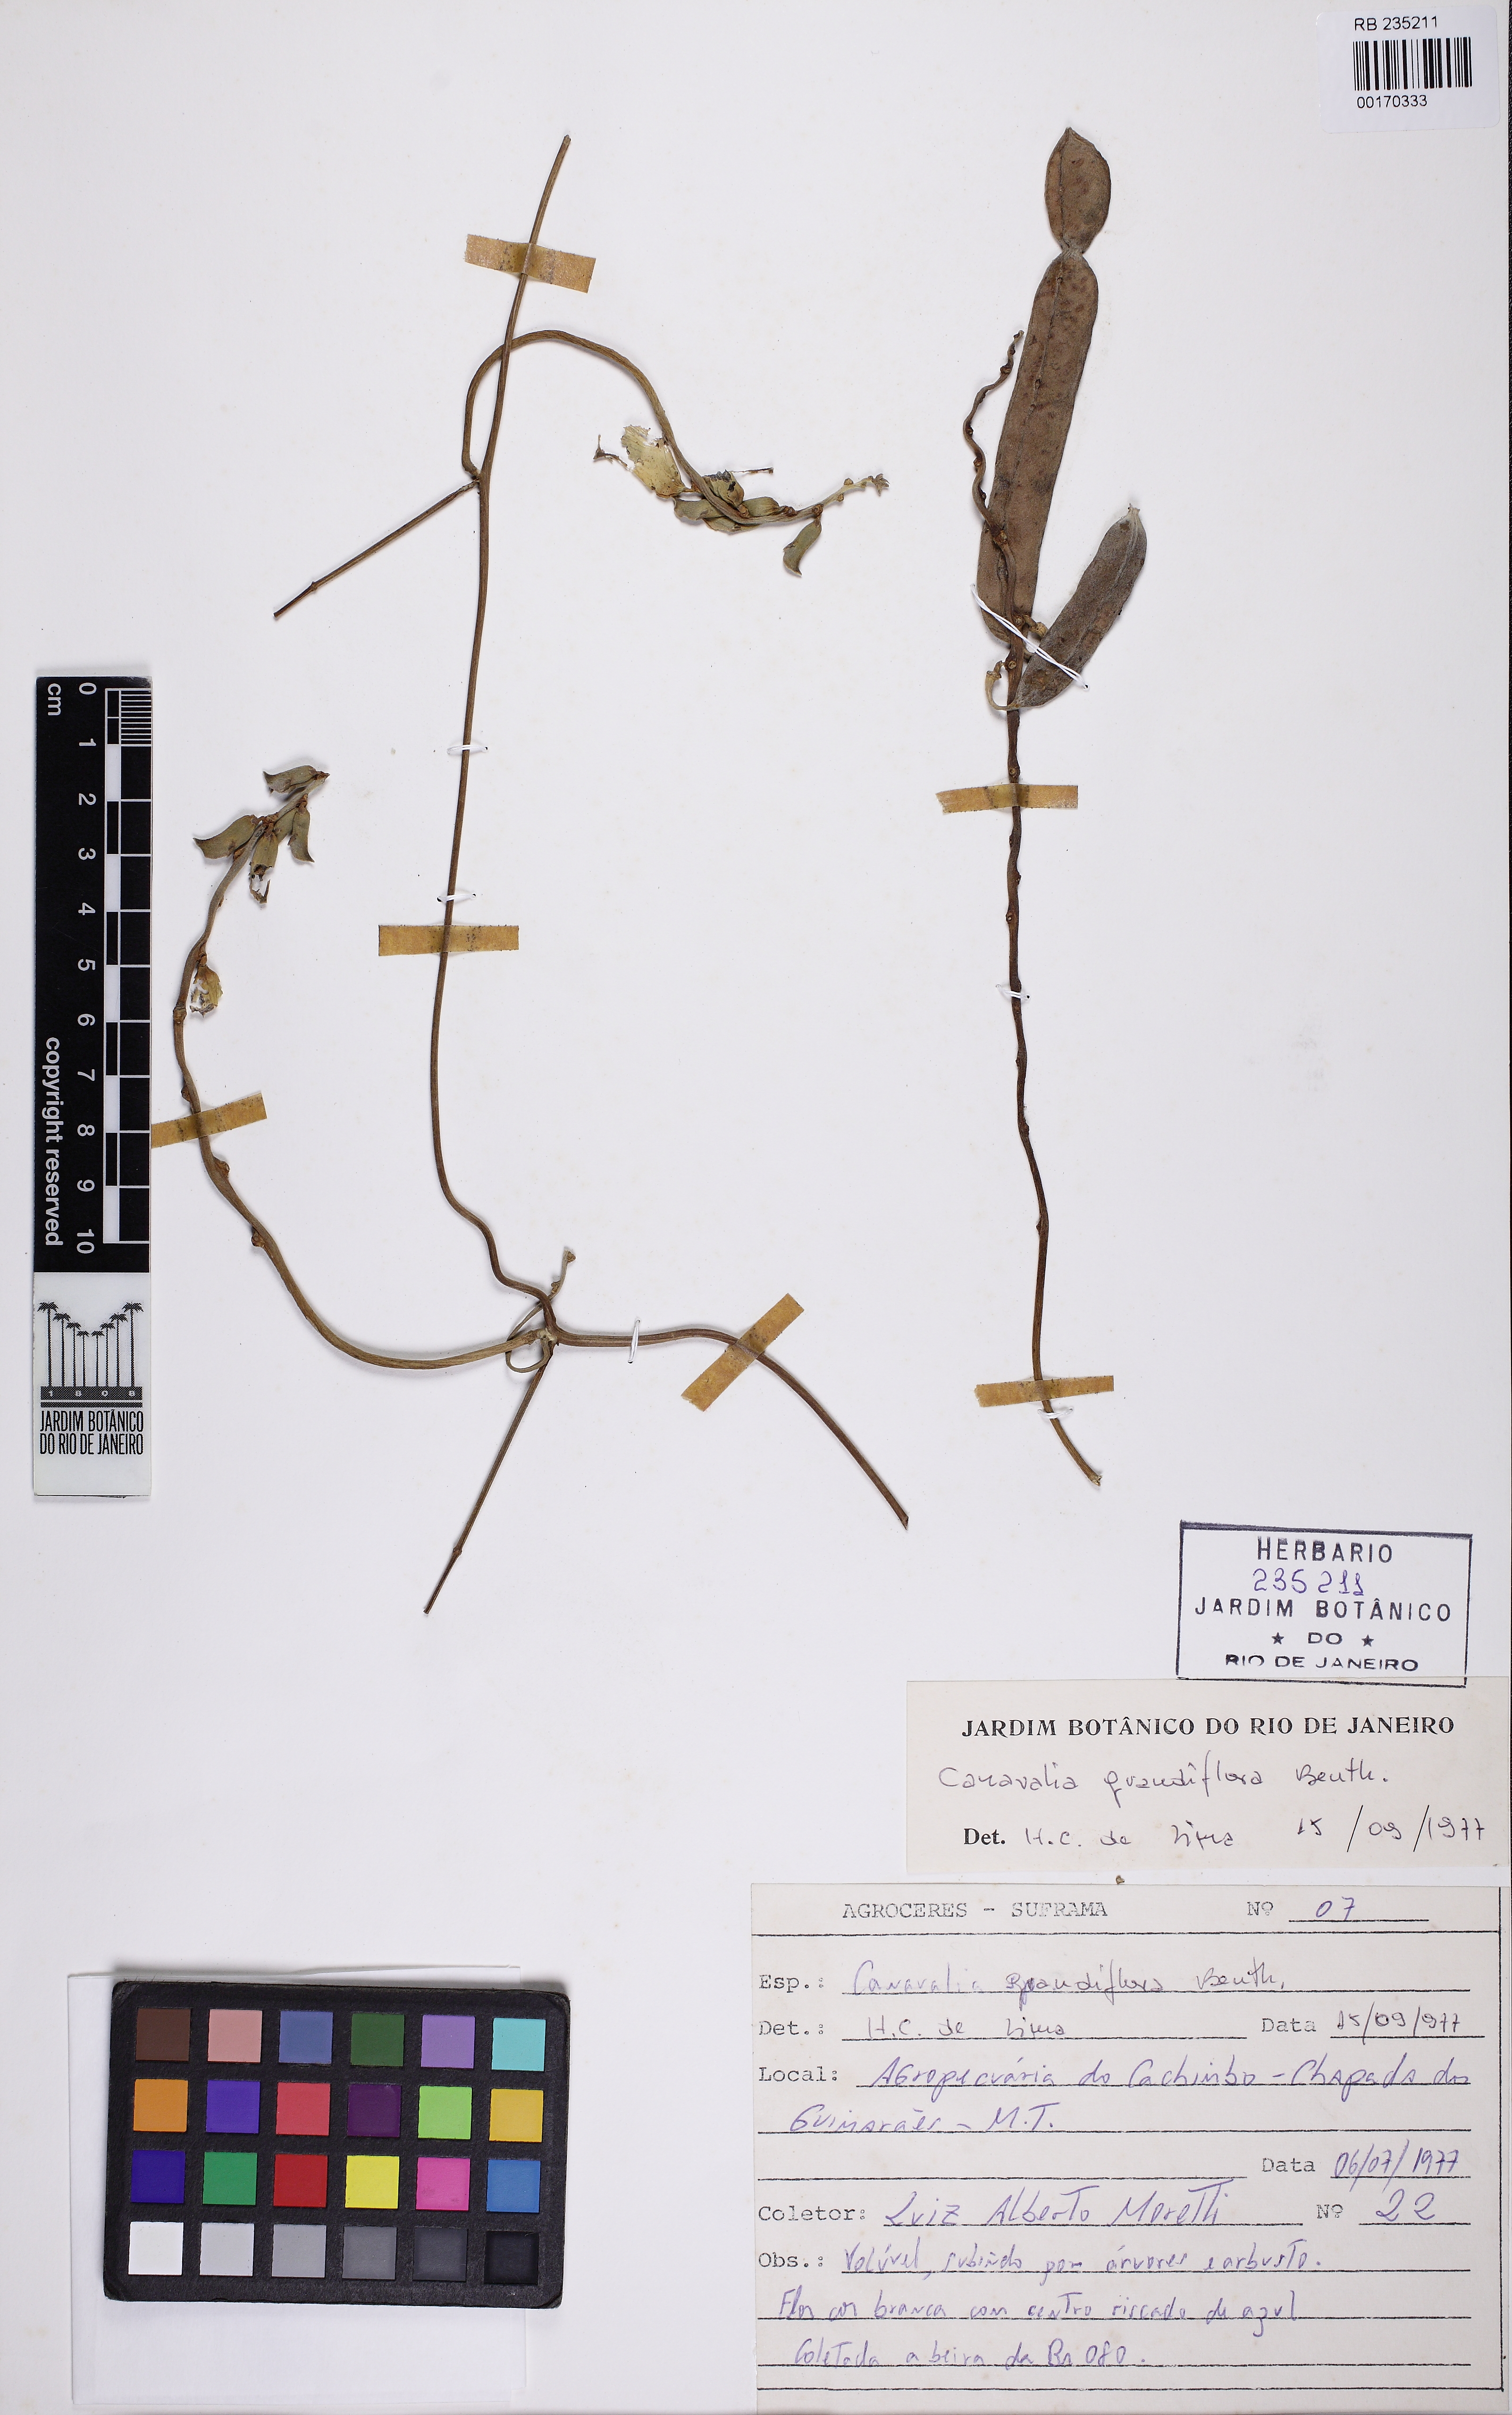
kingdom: Plantae
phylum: Tracheophyta
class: Magnoliopsida
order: Fabales
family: Fabaceae
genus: Canavalia
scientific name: Canavalia grandiflora
